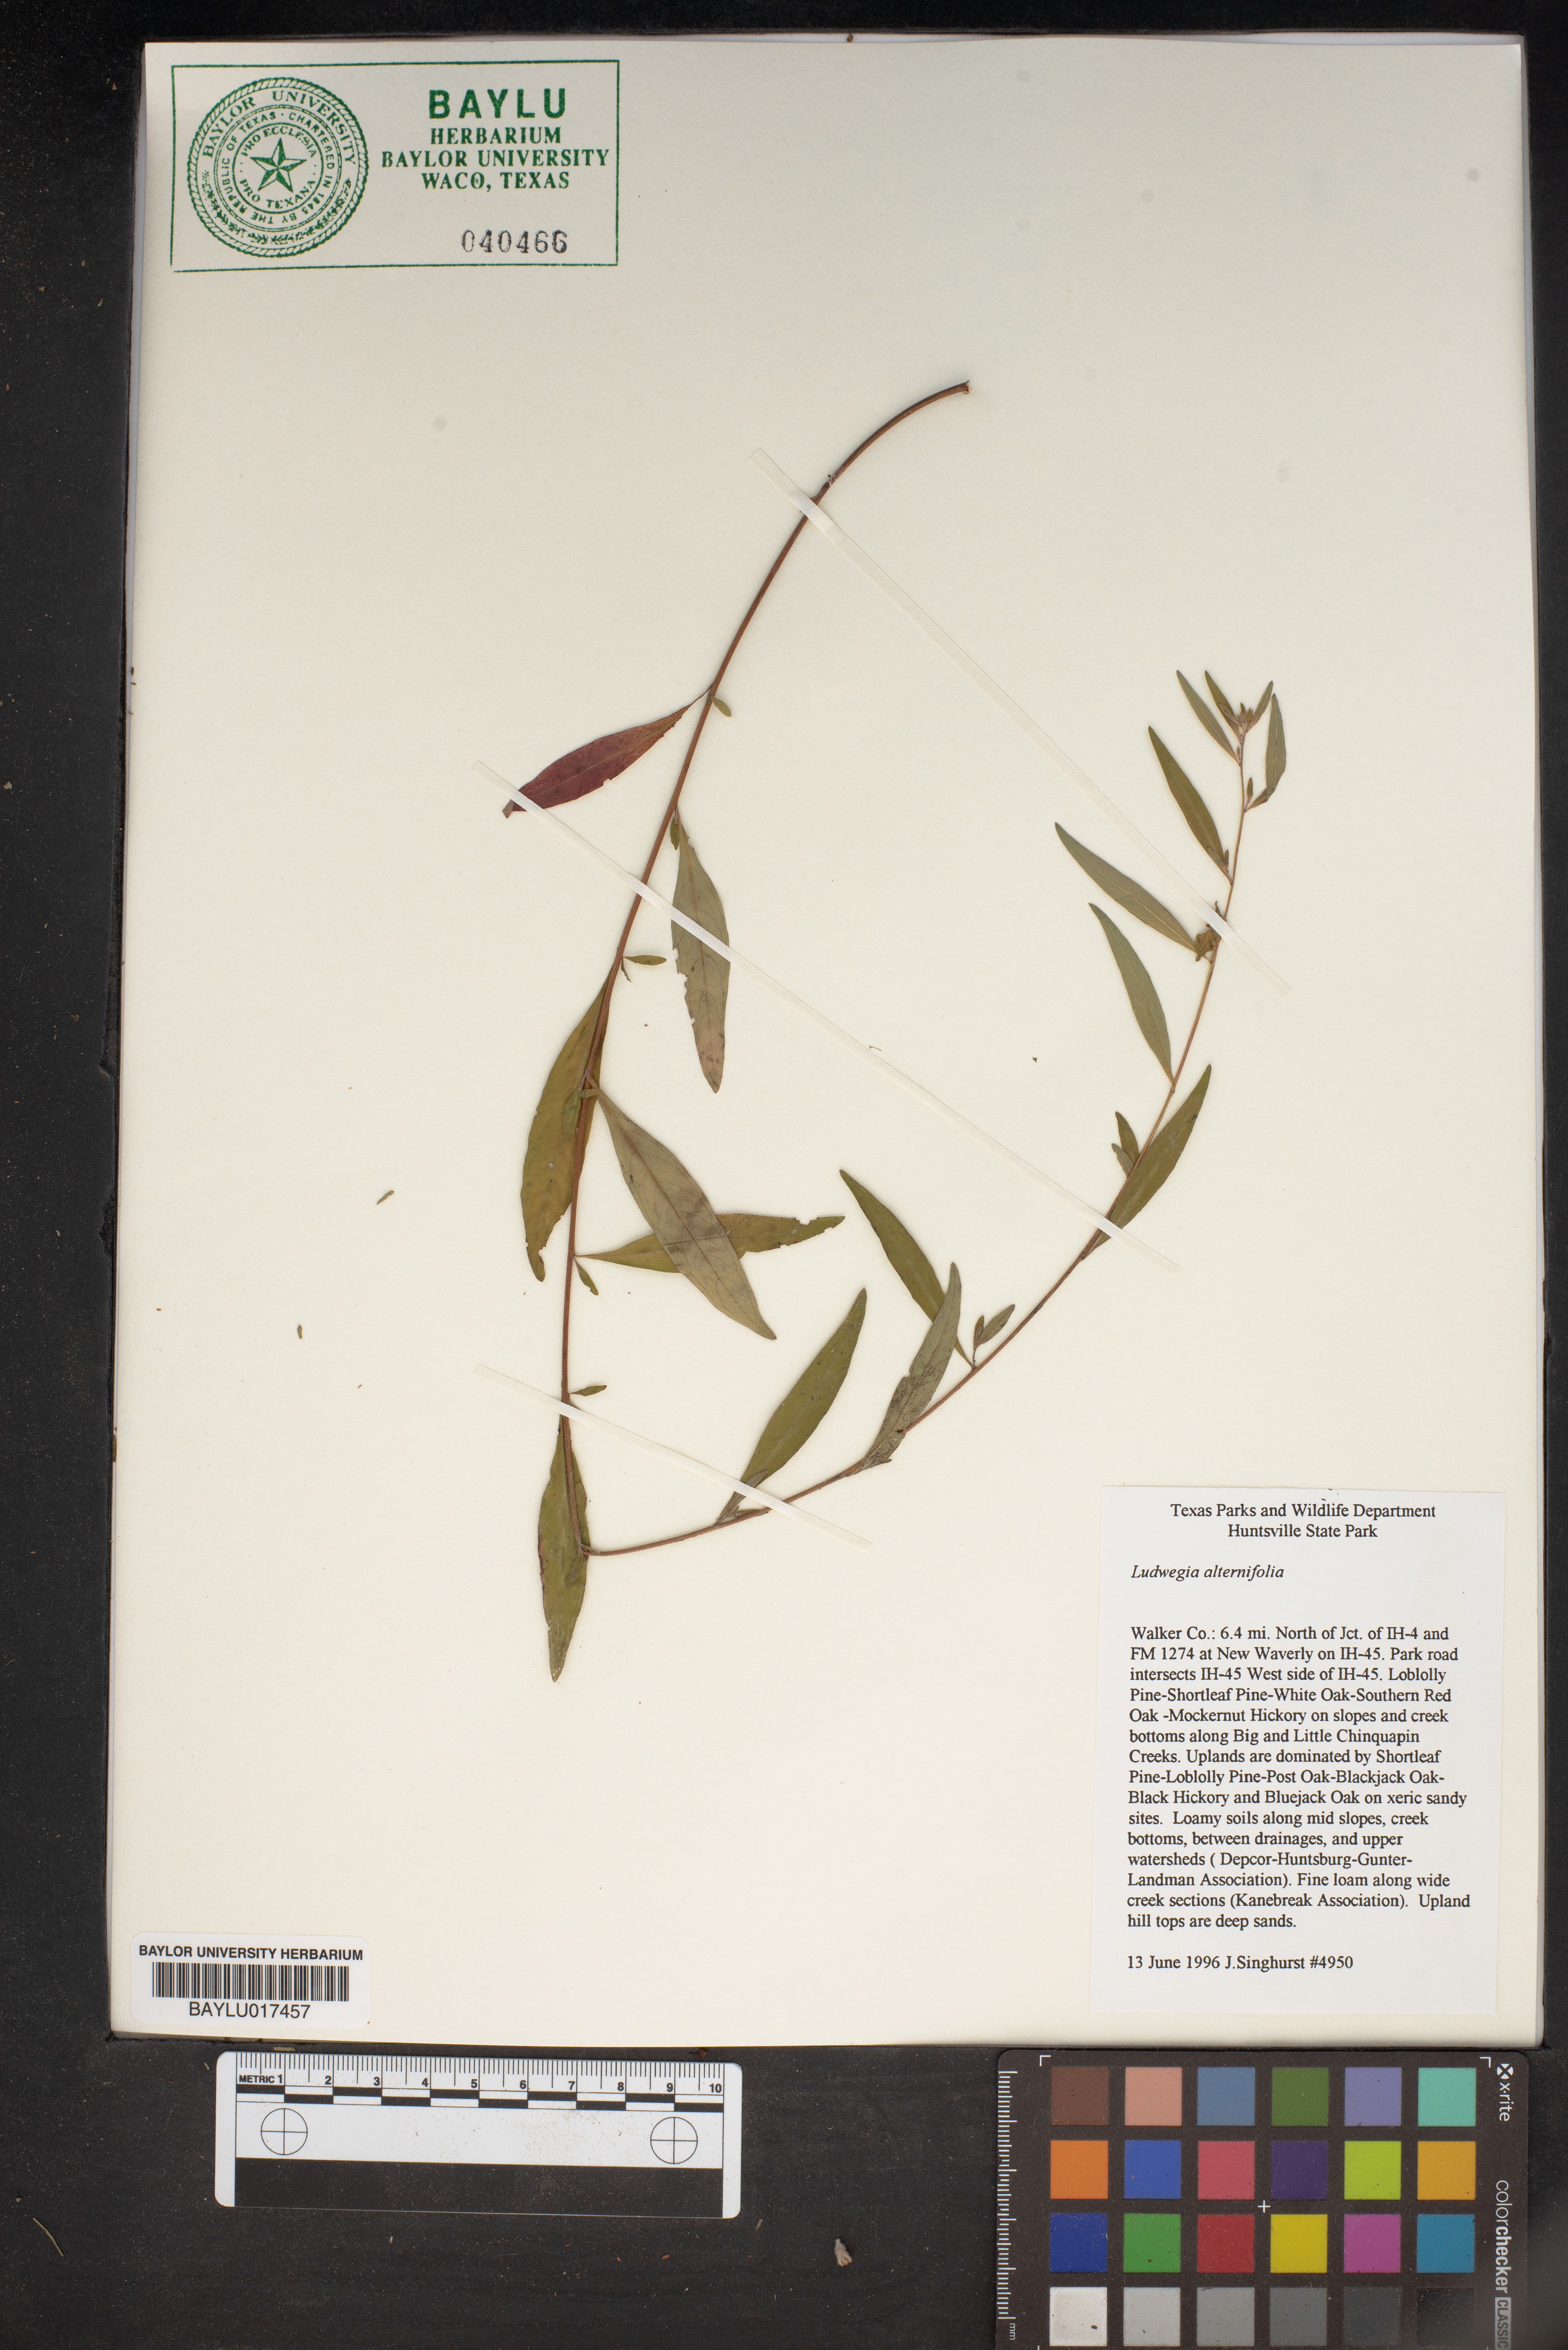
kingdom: Plantae
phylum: Tracheophyta
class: Magnoliopsida
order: Myrtales
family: Onagraceae
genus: Ludwigia
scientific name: Ludwigia alternifolia
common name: Rattlebox
